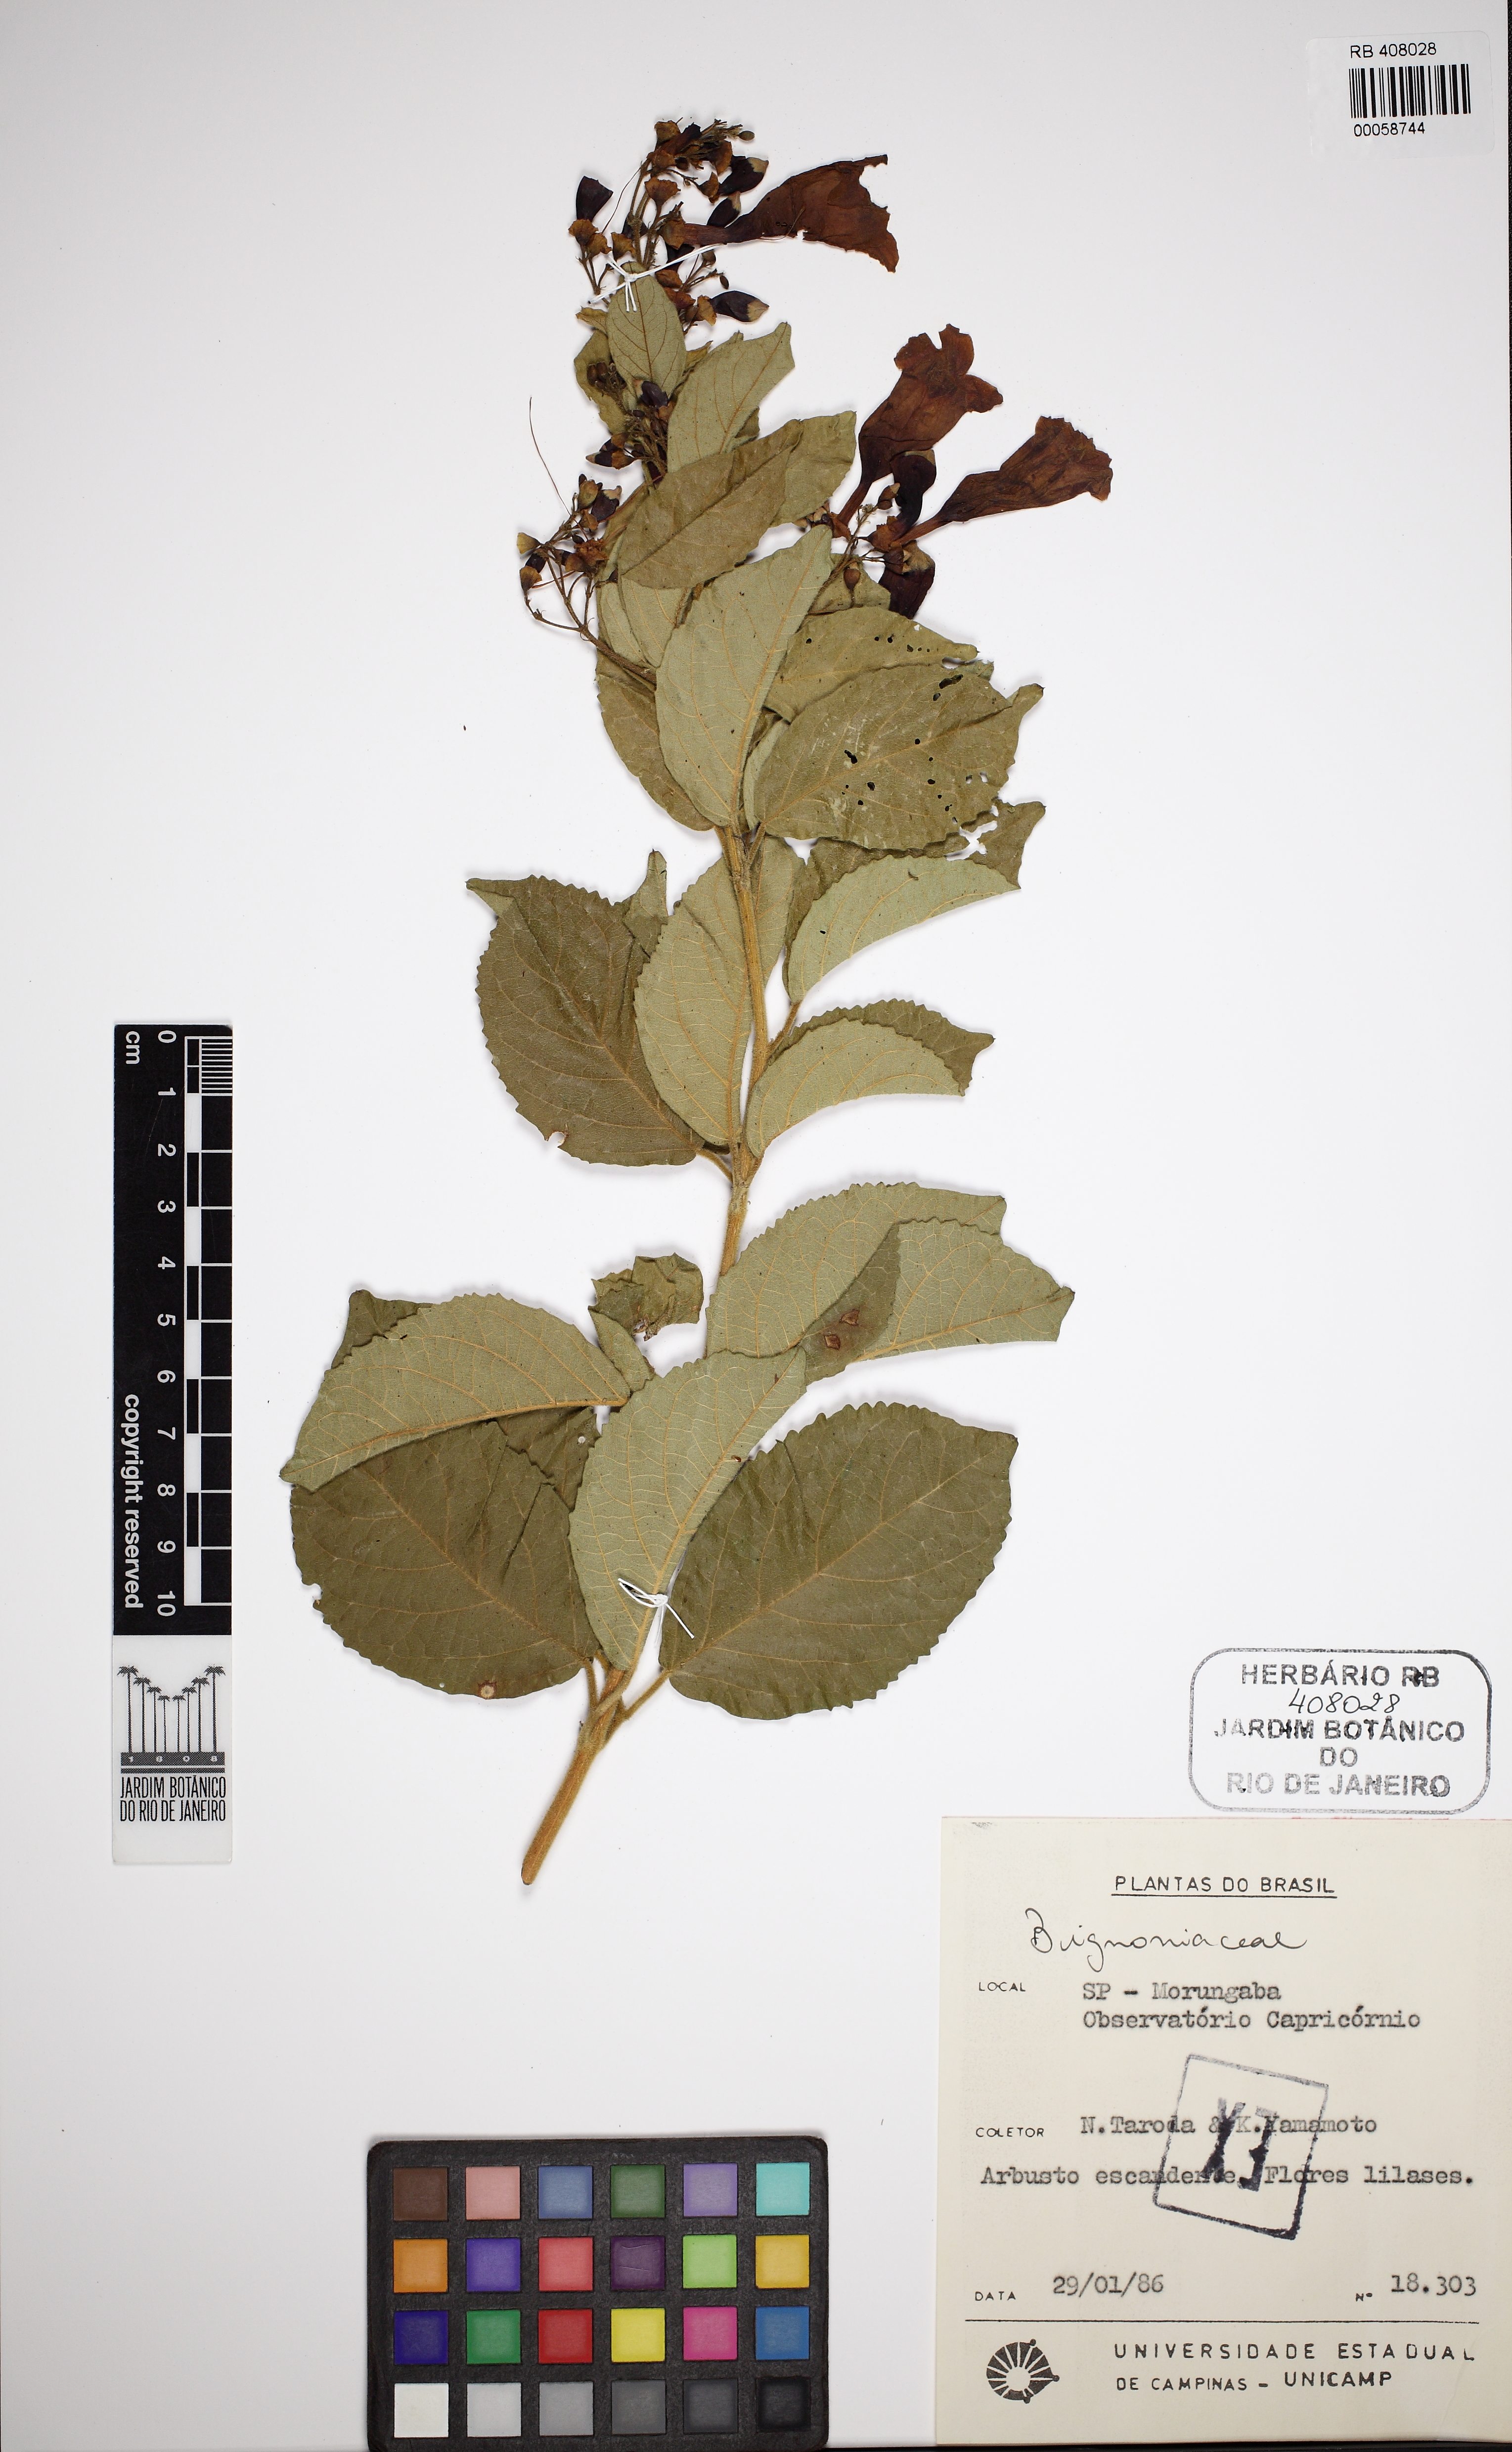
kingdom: Plantae
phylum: Tracheophyta
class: Magnoliopsida
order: Lamiales
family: Bignoniaceae
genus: Fridericia
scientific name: Fridericia samydoides
